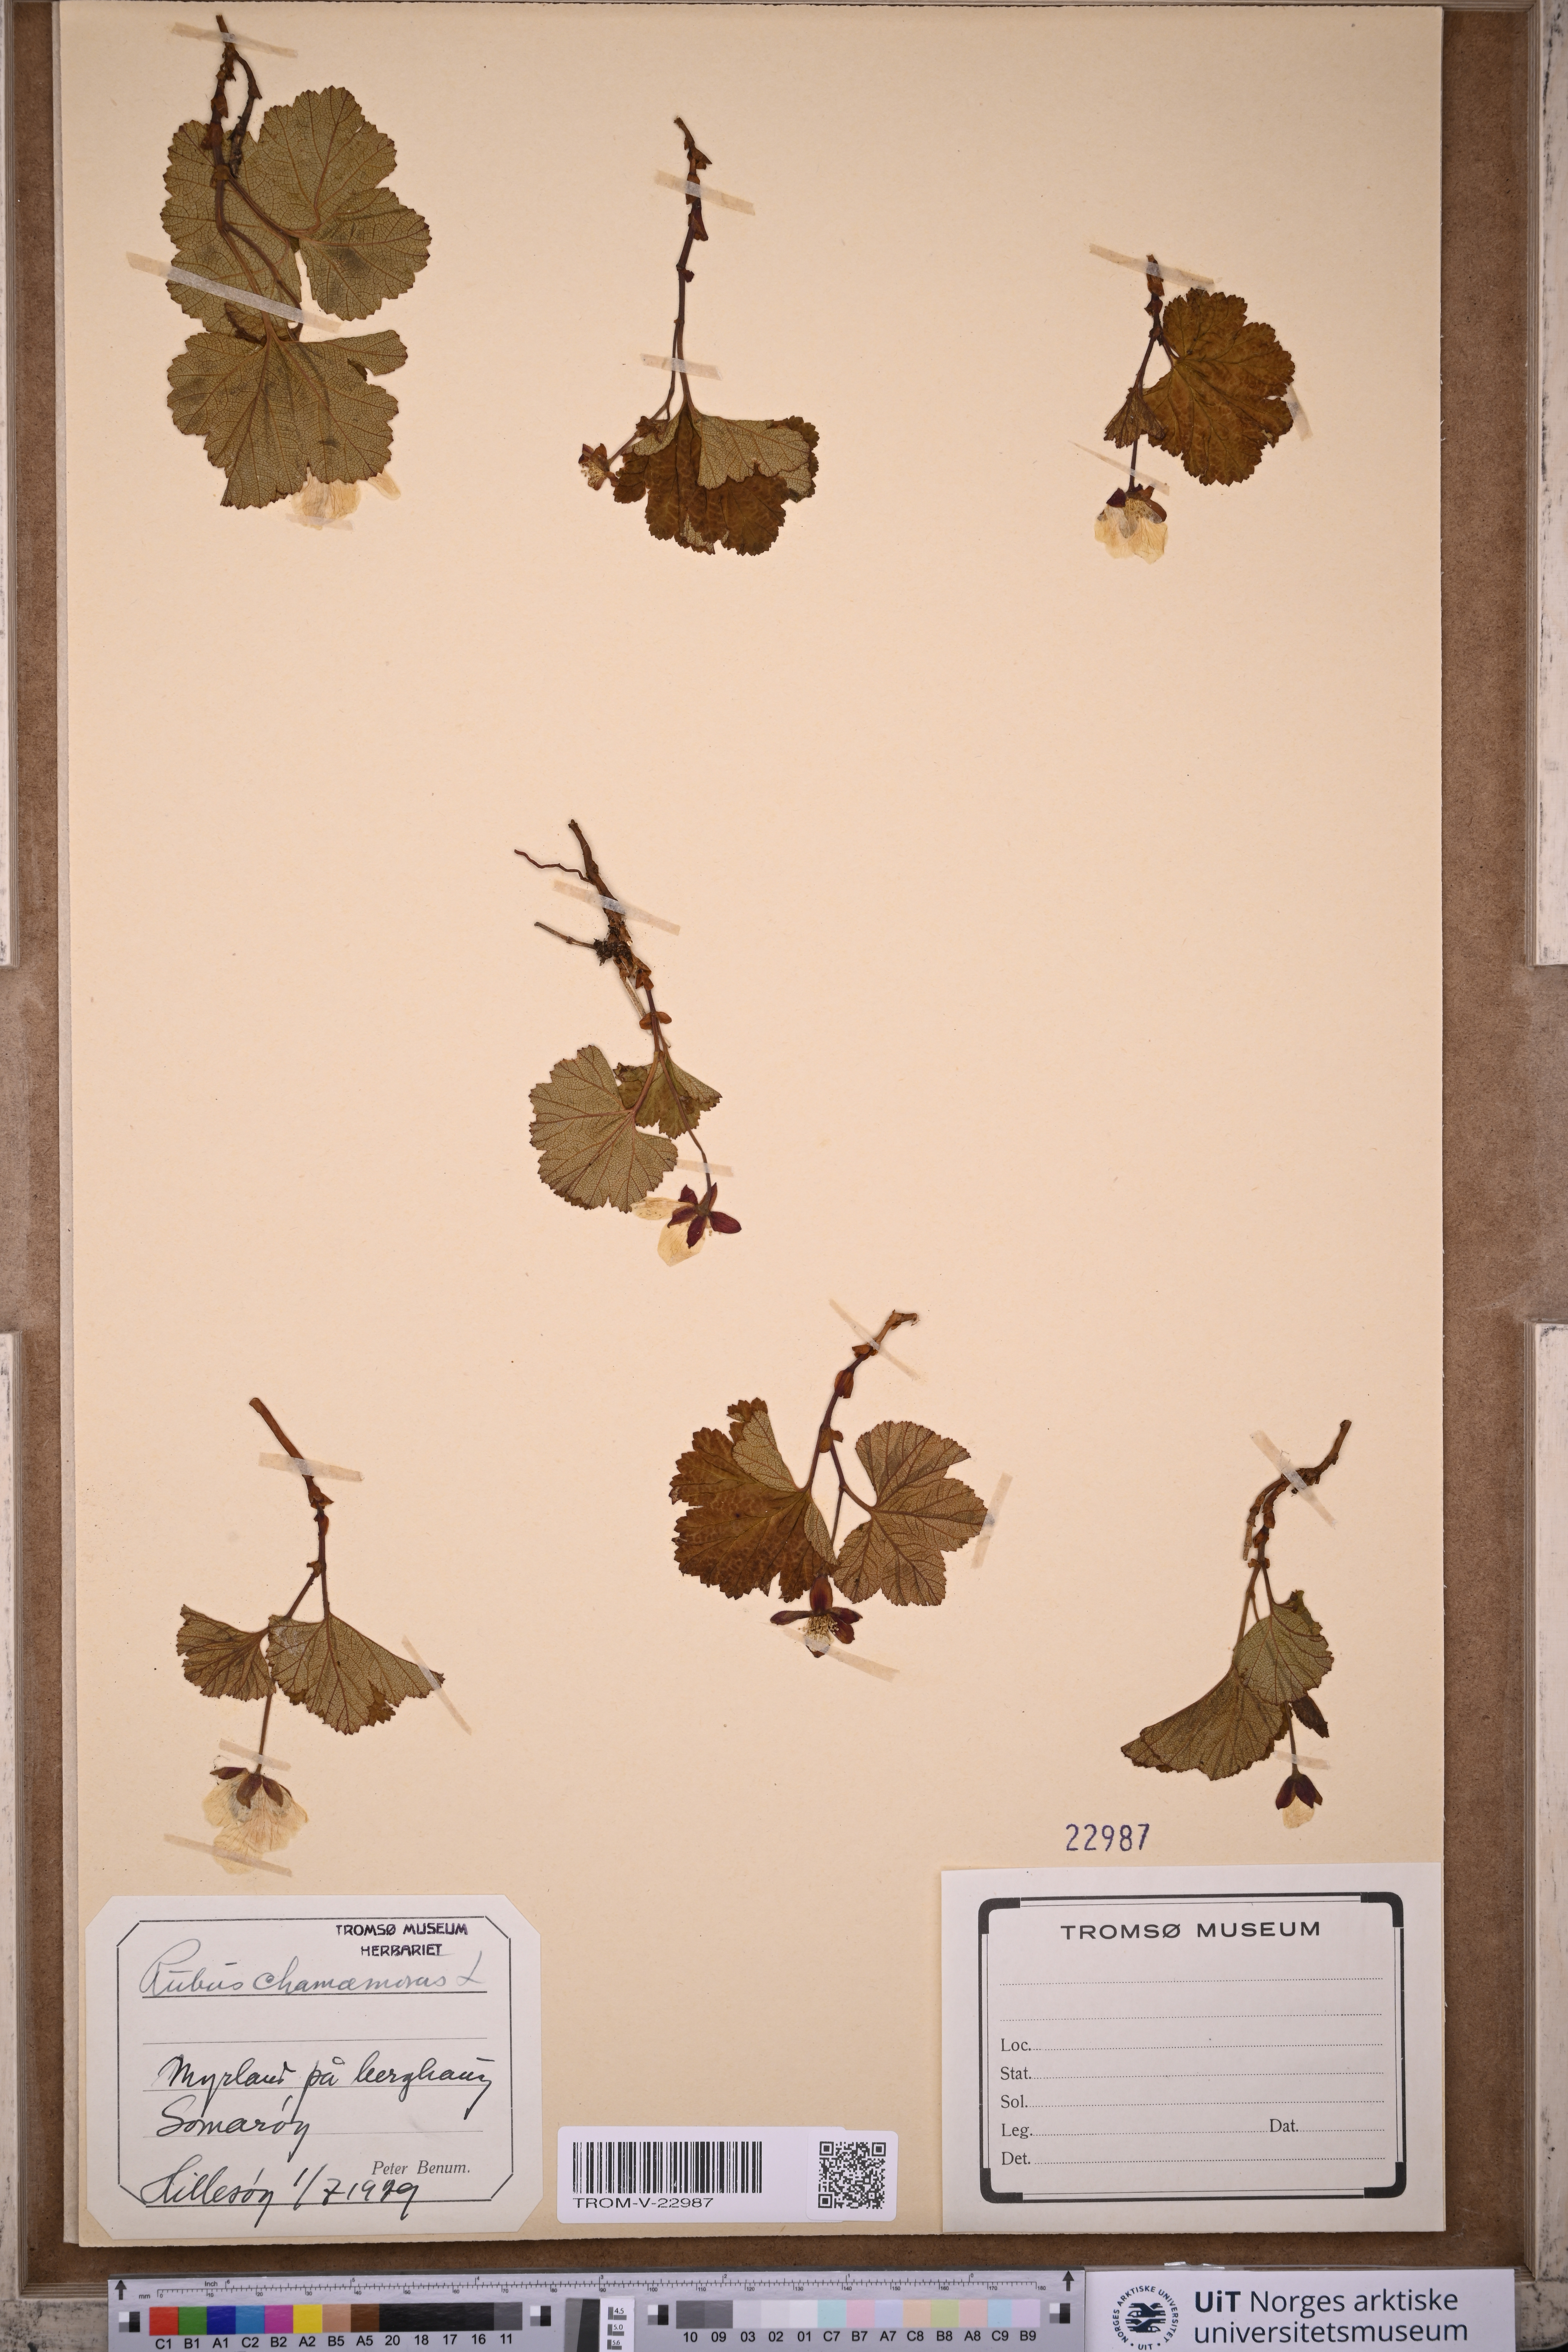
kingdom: Plantae
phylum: Tracheophyta
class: Magnoliopsida
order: Rosales
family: Rosaceae
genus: Rubus
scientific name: Rubus chamaemorus
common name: Cloudberry
